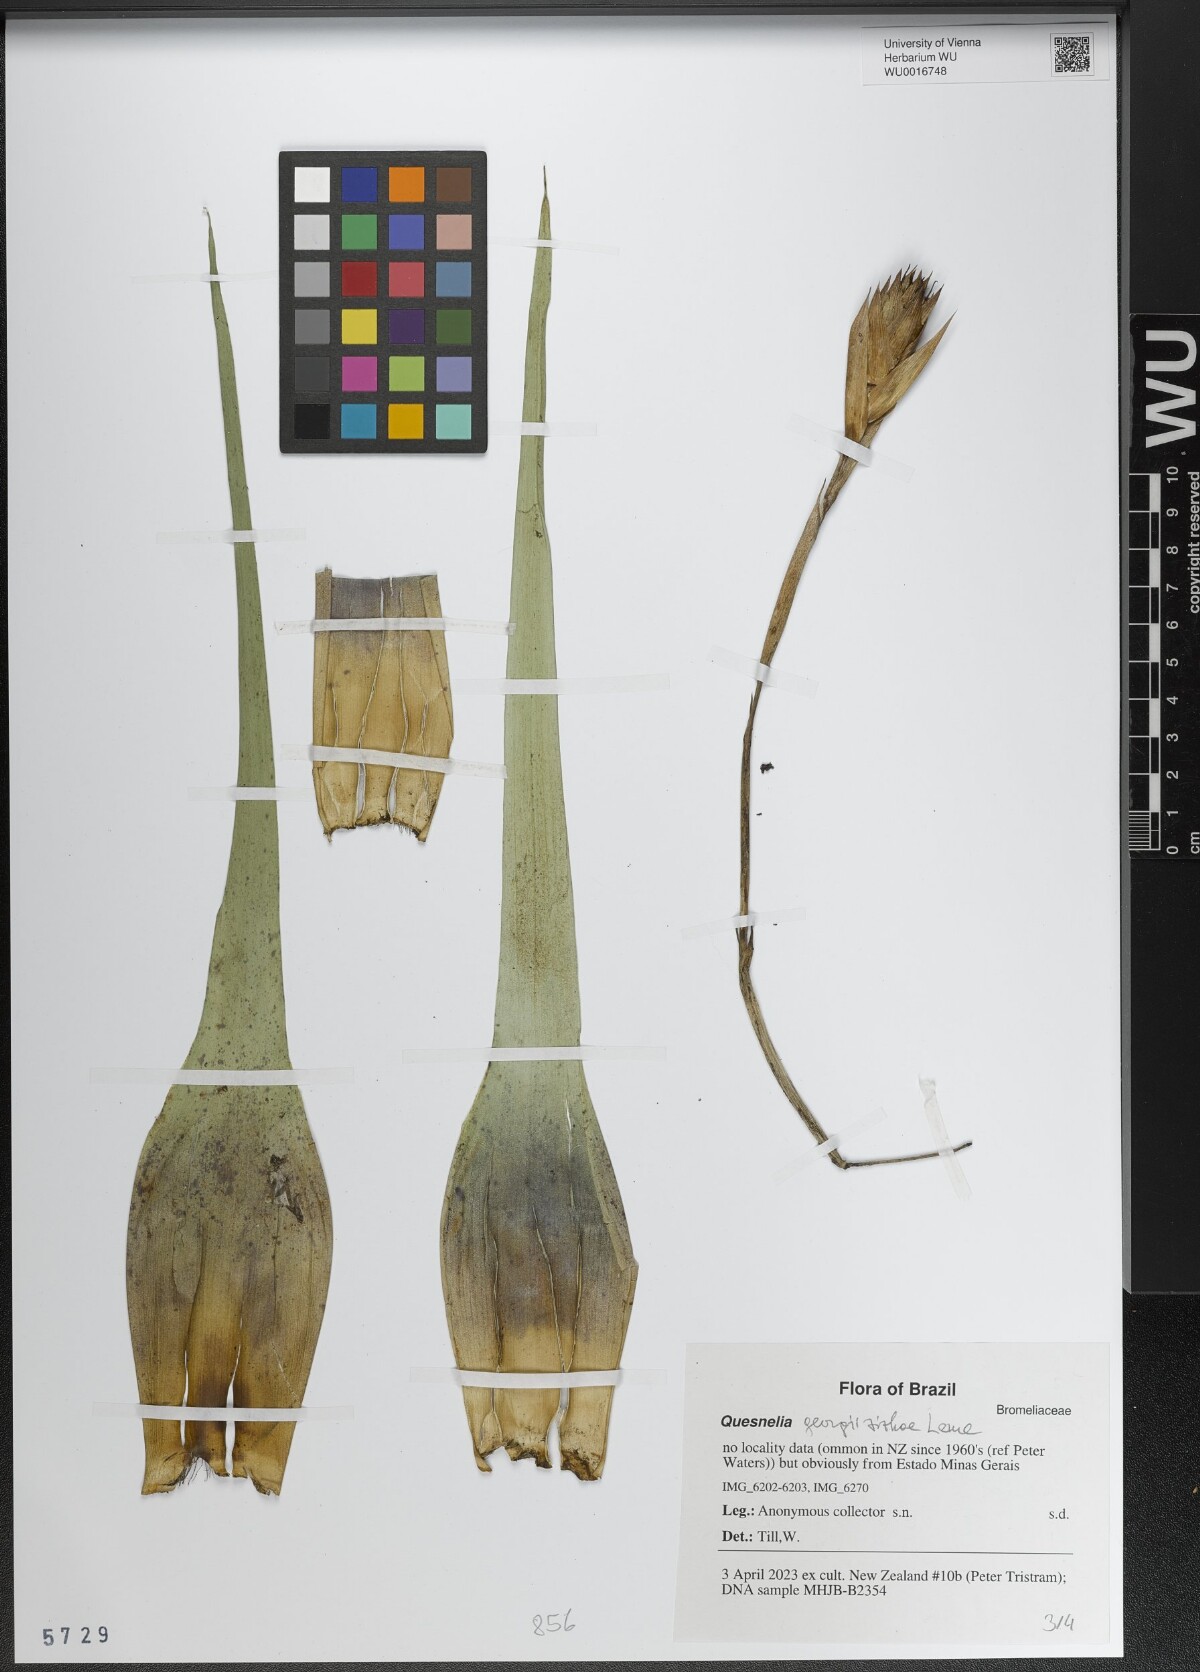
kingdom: Plantae
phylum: Tracheophyta
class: Liliopsida
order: Poales
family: Bromeliaceae
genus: Quesnelia
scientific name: Quesnelia
